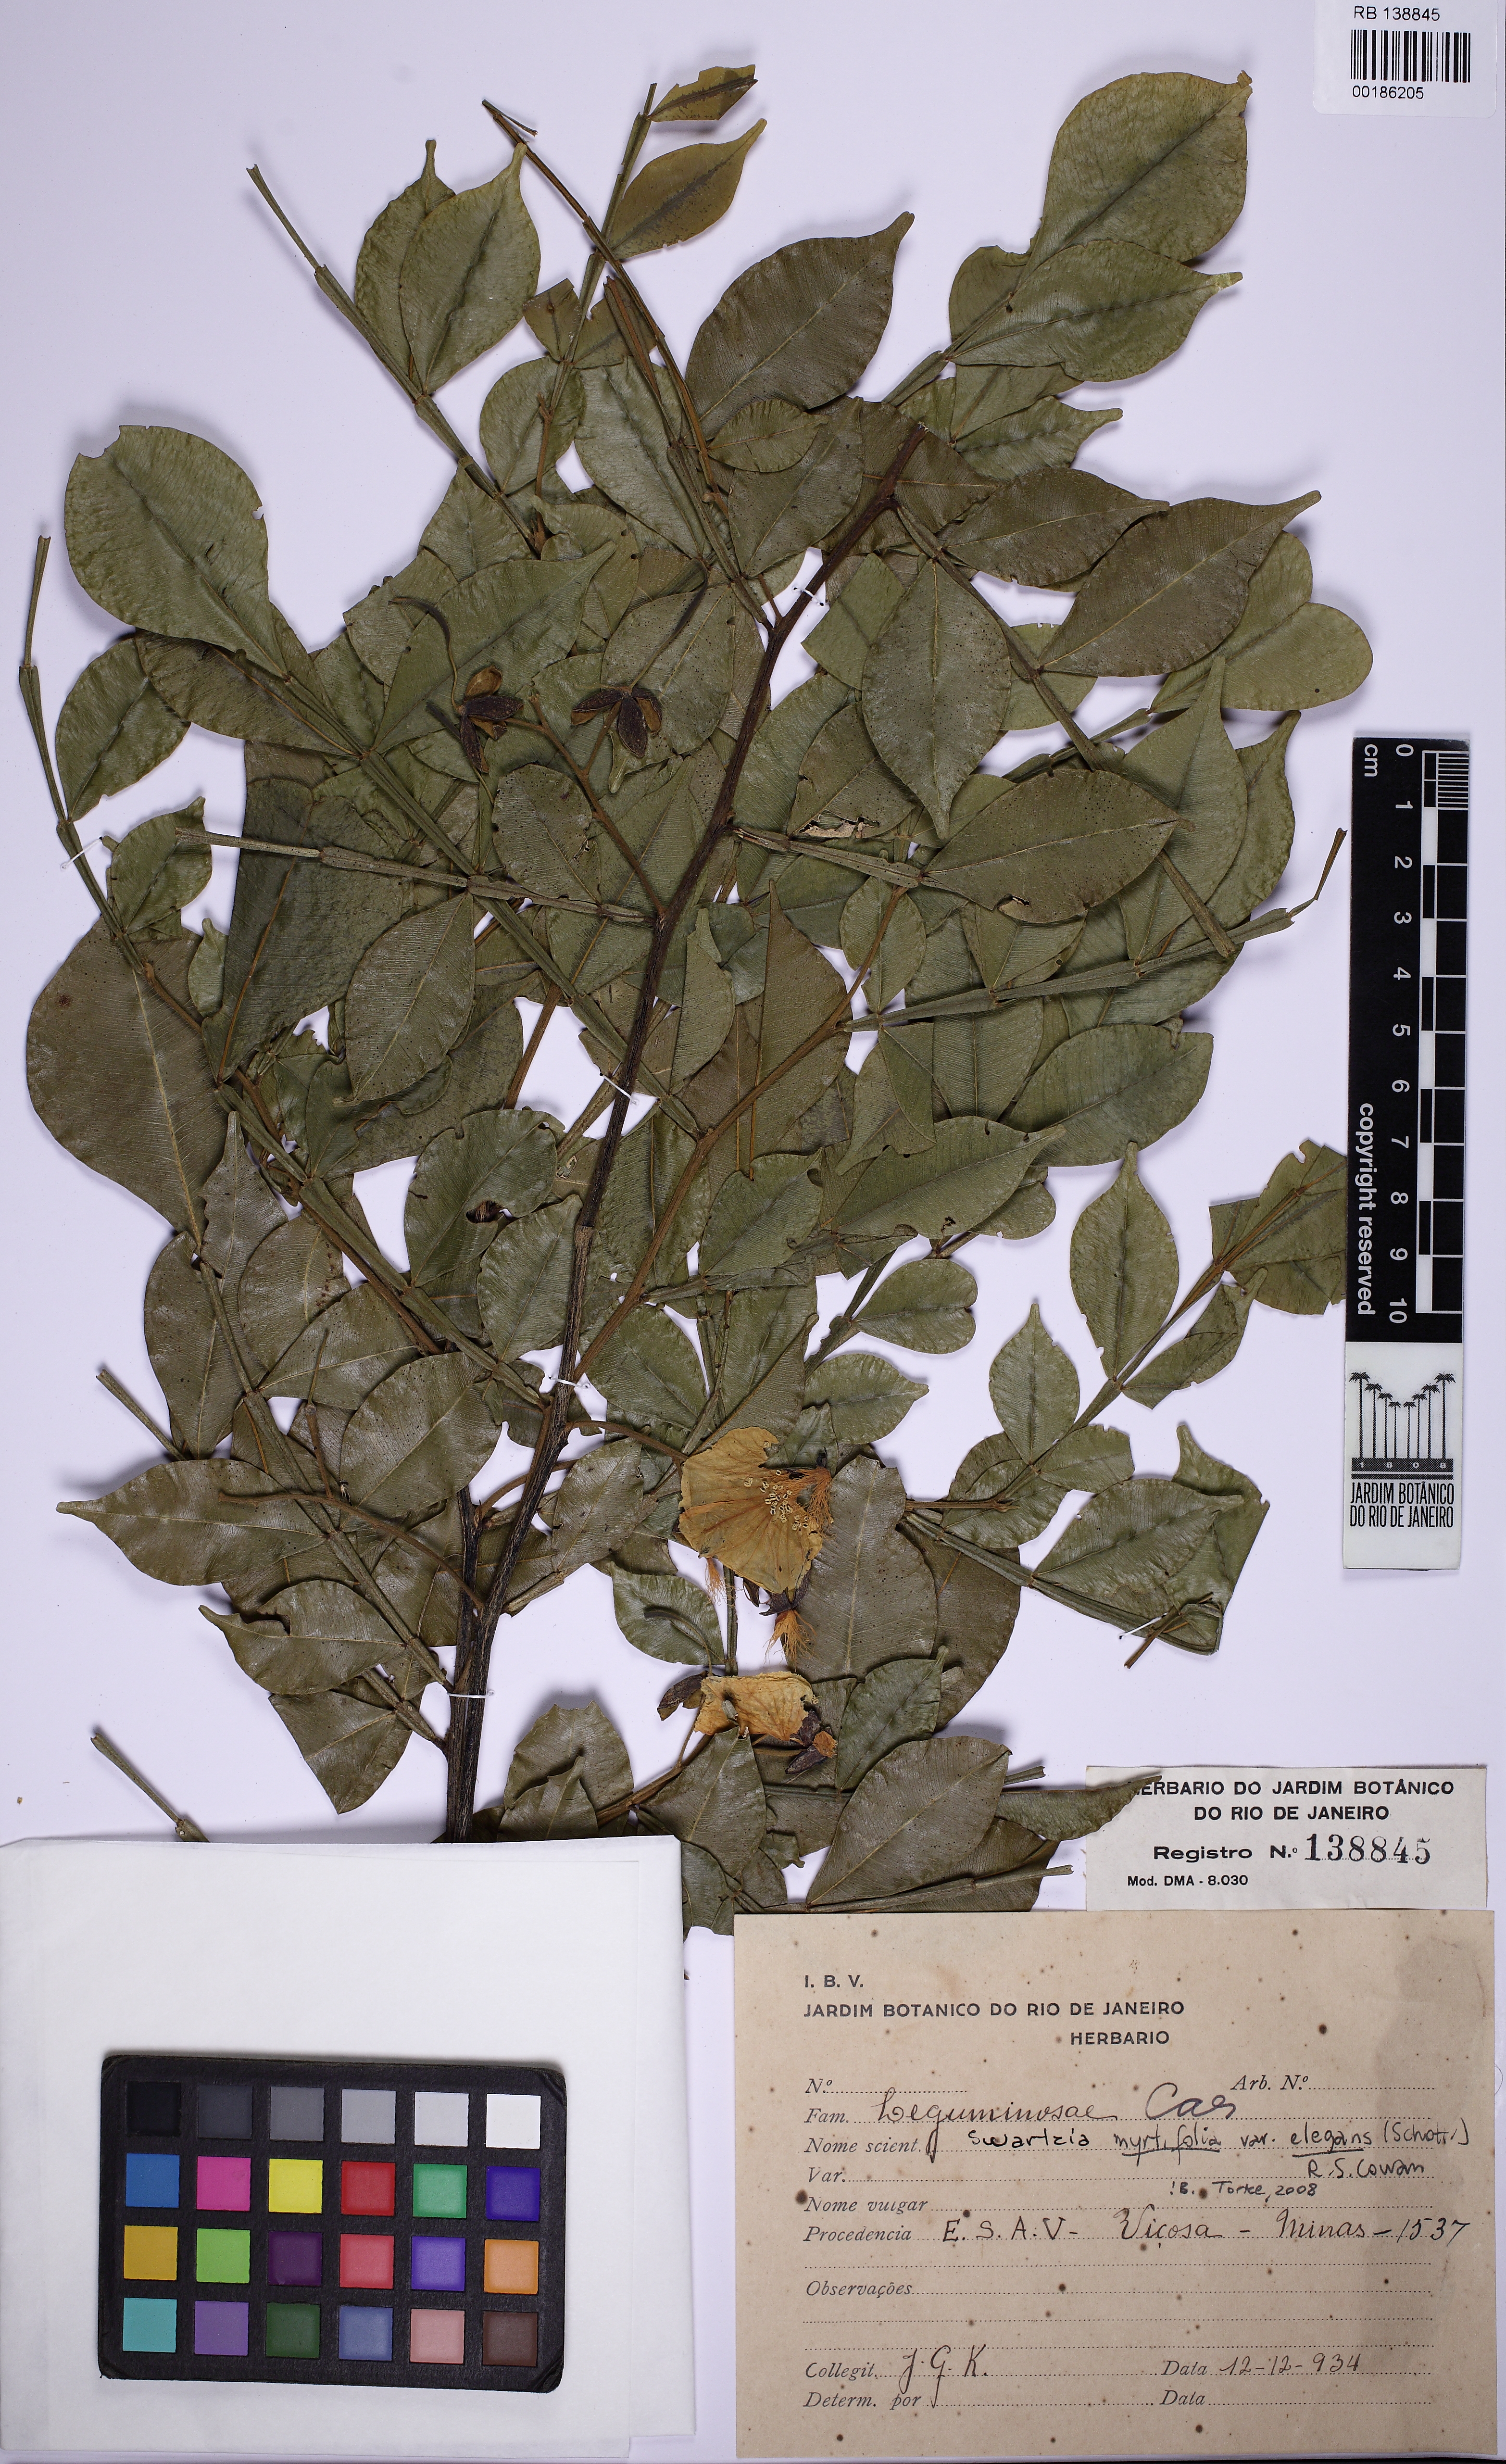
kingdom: Plantae
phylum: Tracheophyta
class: Magnoliopsida
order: Fabales
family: Fabaceae
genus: Swartzia
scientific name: Swartzia myrtifolia
